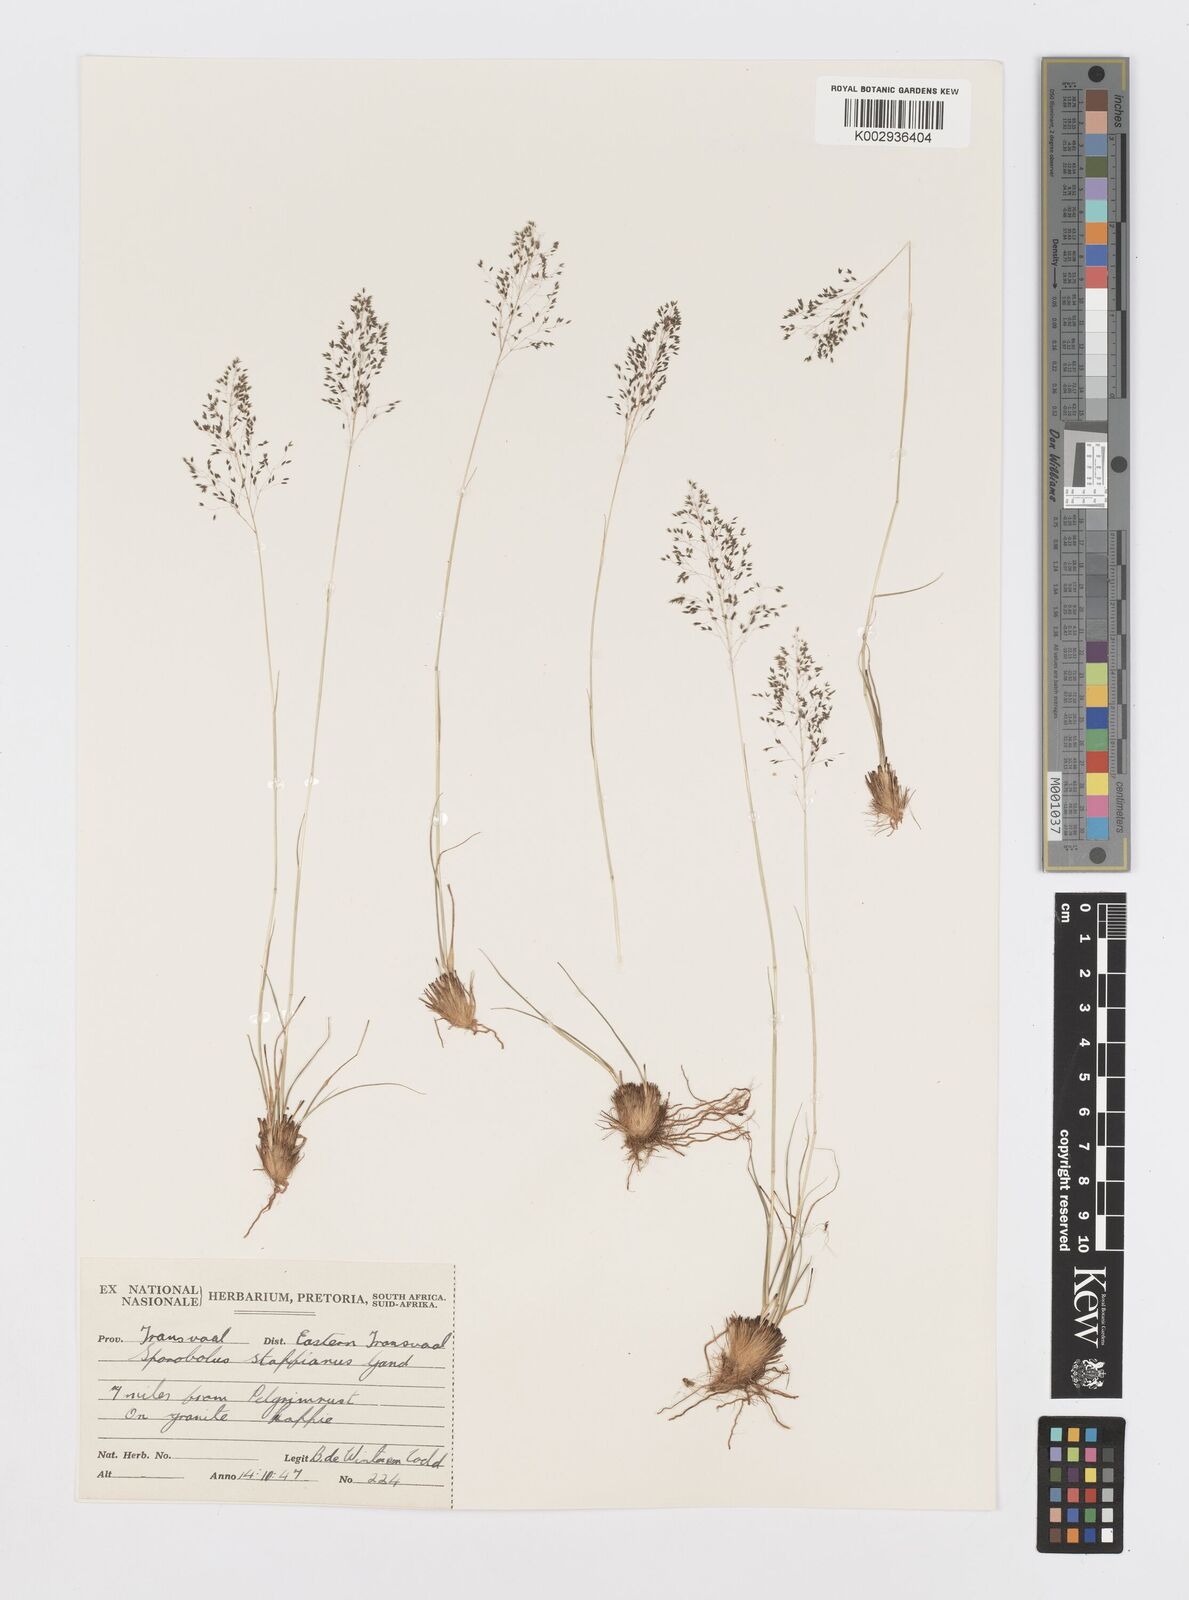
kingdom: Plantae
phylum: Tracheophyta
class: Liliopsida
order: Poales
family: Poaceae
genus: Sporobolus
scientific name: Sporobolus stapfianus
